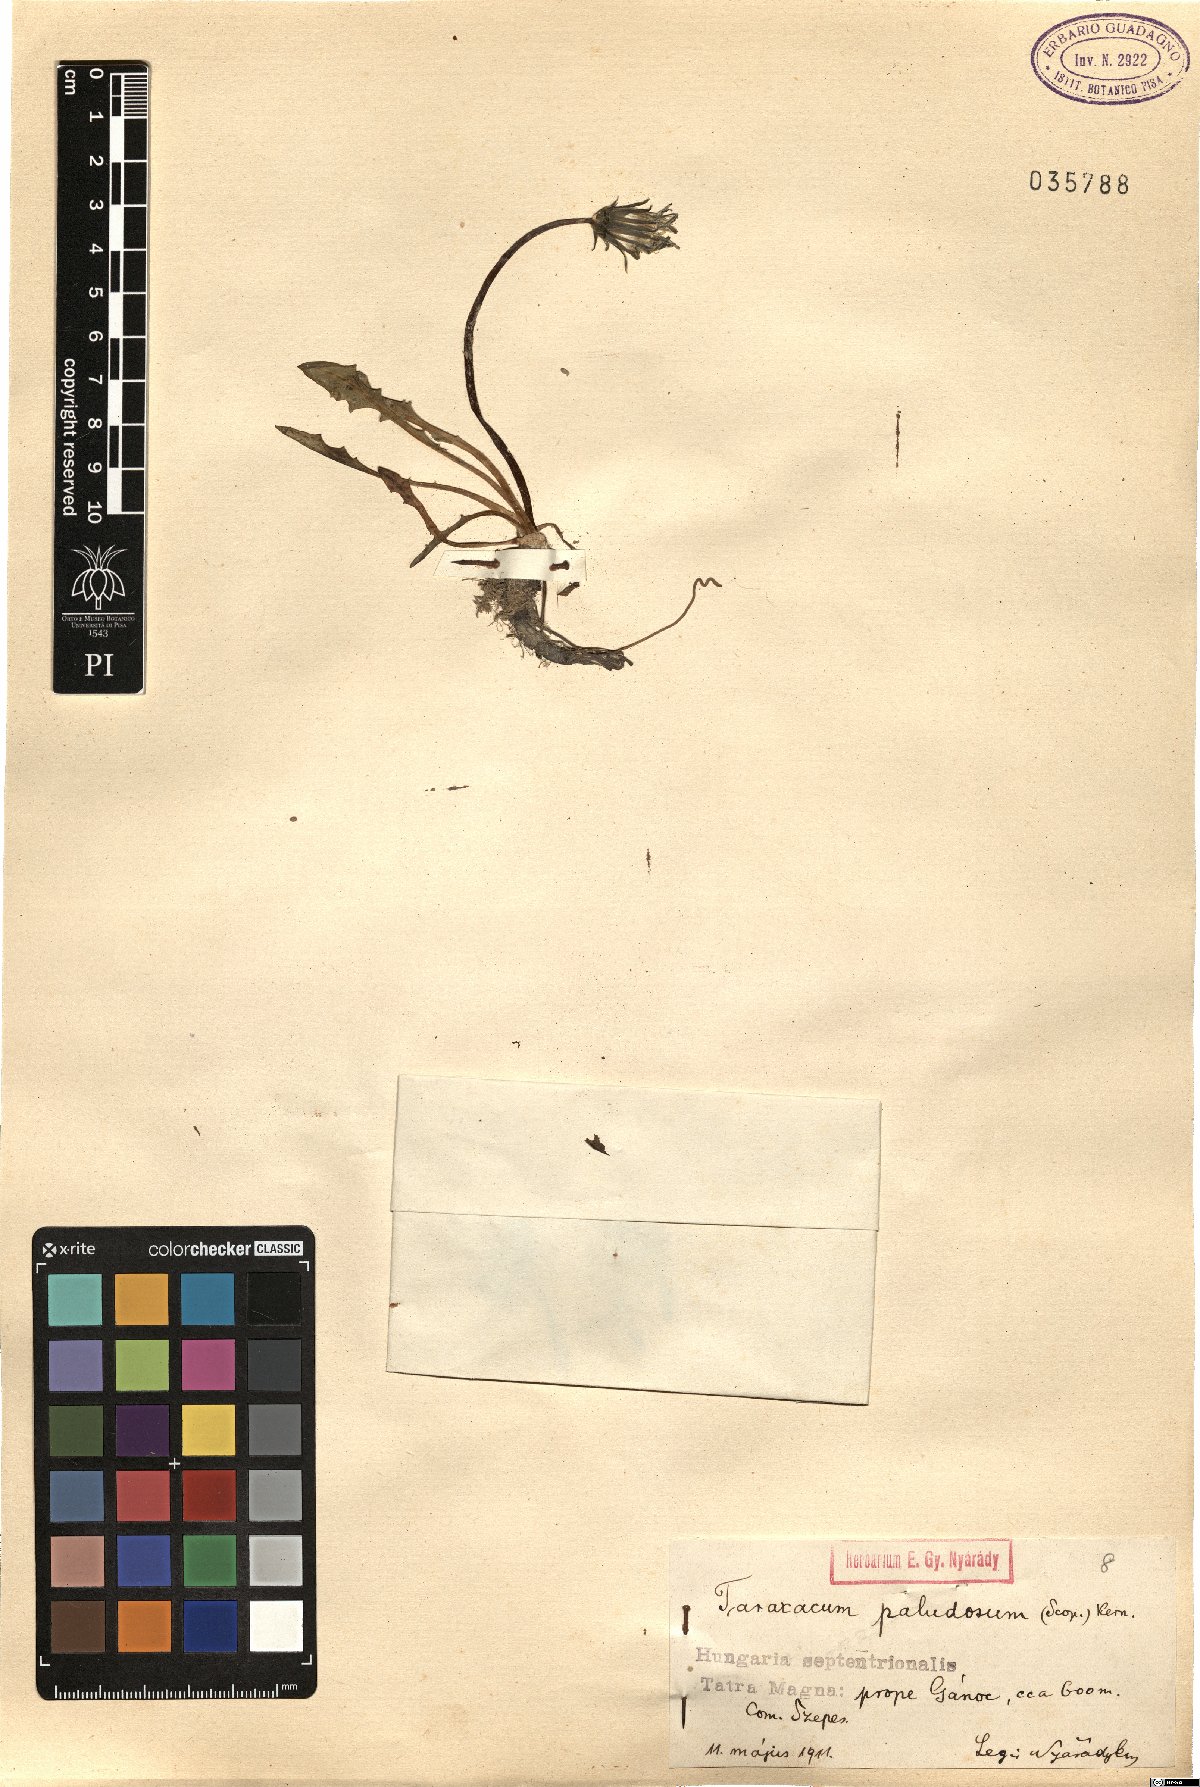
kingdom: Plantae
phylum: Tracheophyta
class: Magnoliopsida
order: Asterales
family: Asteraceae
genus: Taraxacum
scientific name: Taraxacum paludosum
